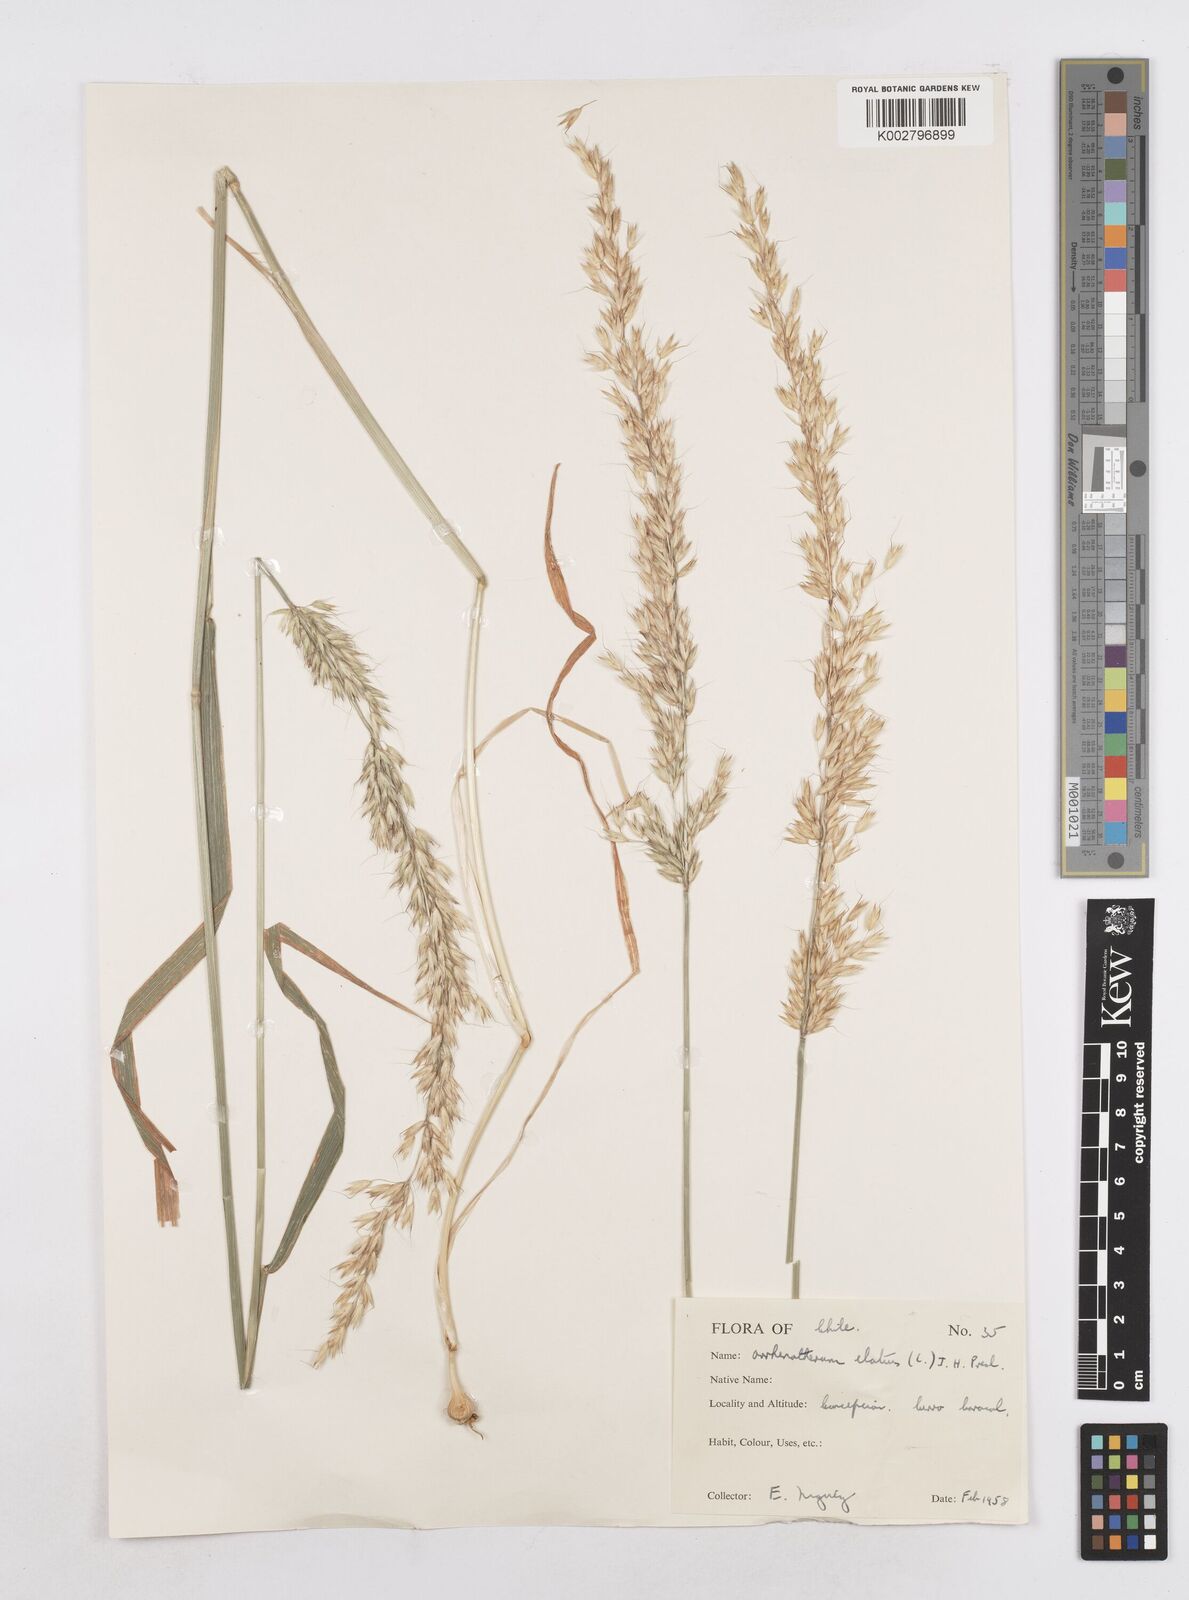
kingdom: Plantae
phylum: Tracheophyta
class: Liliopsida
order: Poales
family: Poaceae
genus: Arrhenatherum
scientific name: Arrhenatherum elatius
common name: Tall oatgrass
